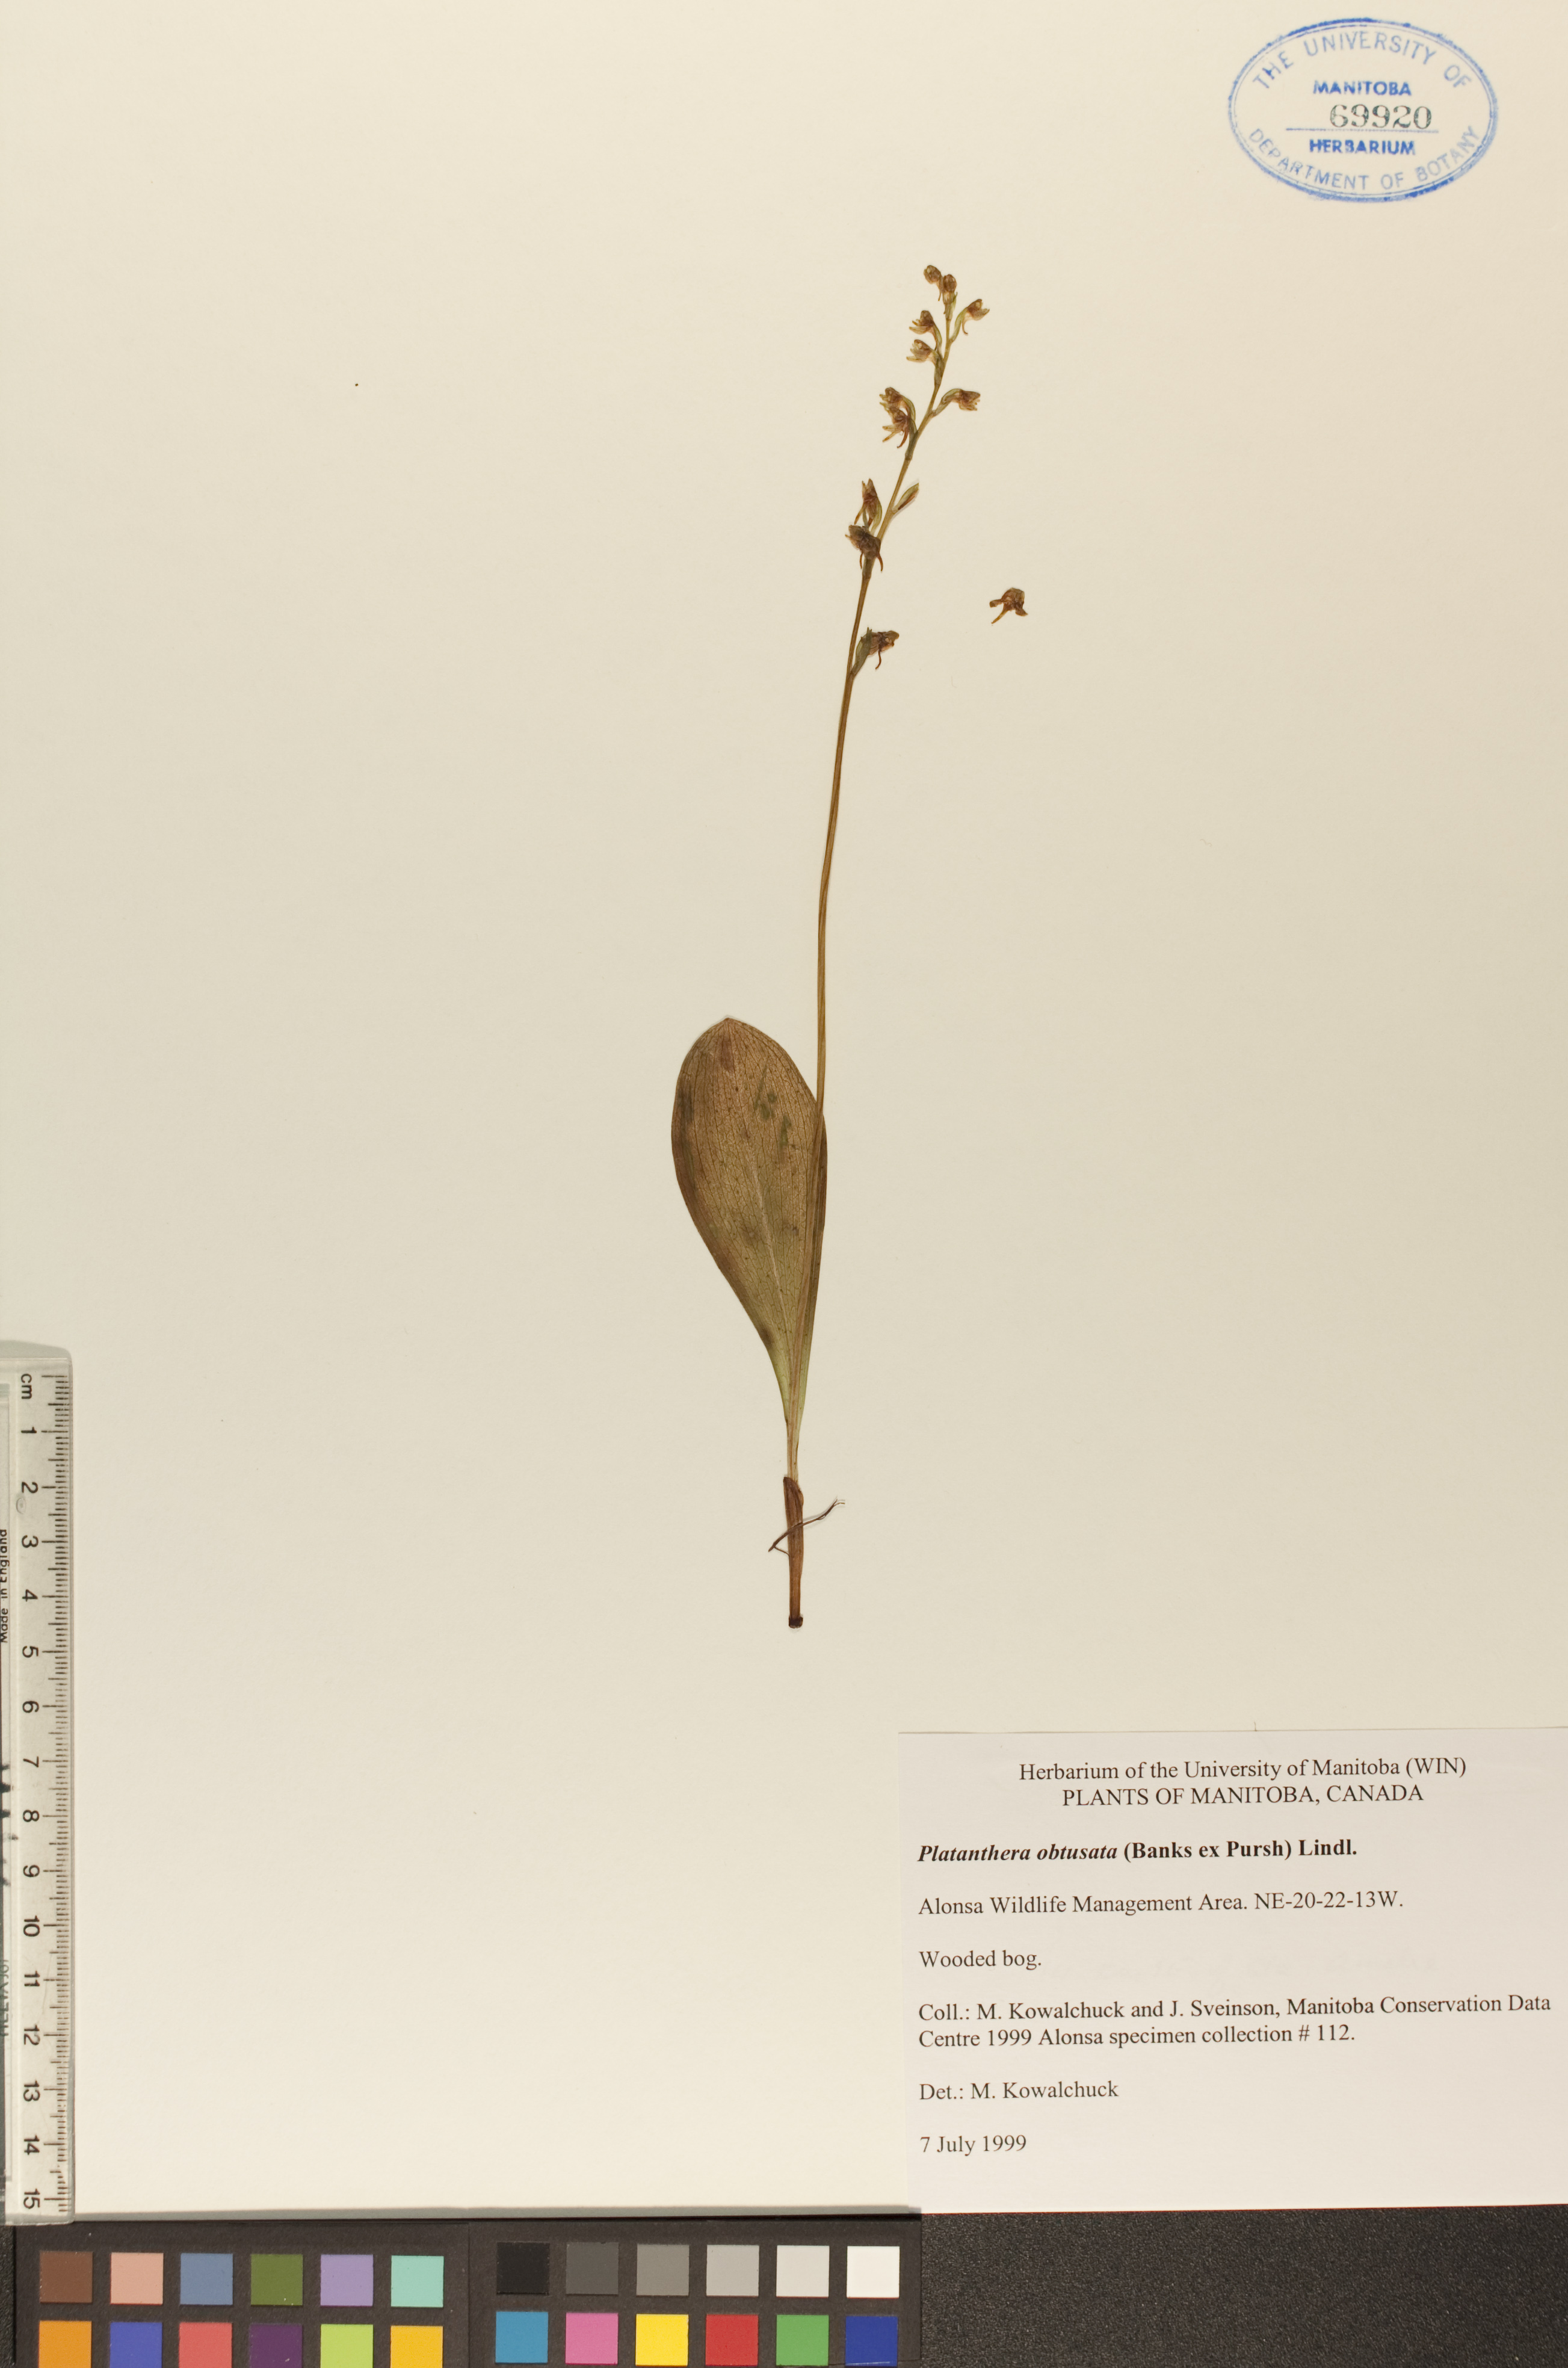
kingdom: Plantae
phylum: Tracheophyta
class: Liliopsida
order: Asparagales
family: Orchidaceae
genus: Platanthera
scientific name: Platanthera obtusata
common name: Blunt bog orchid
